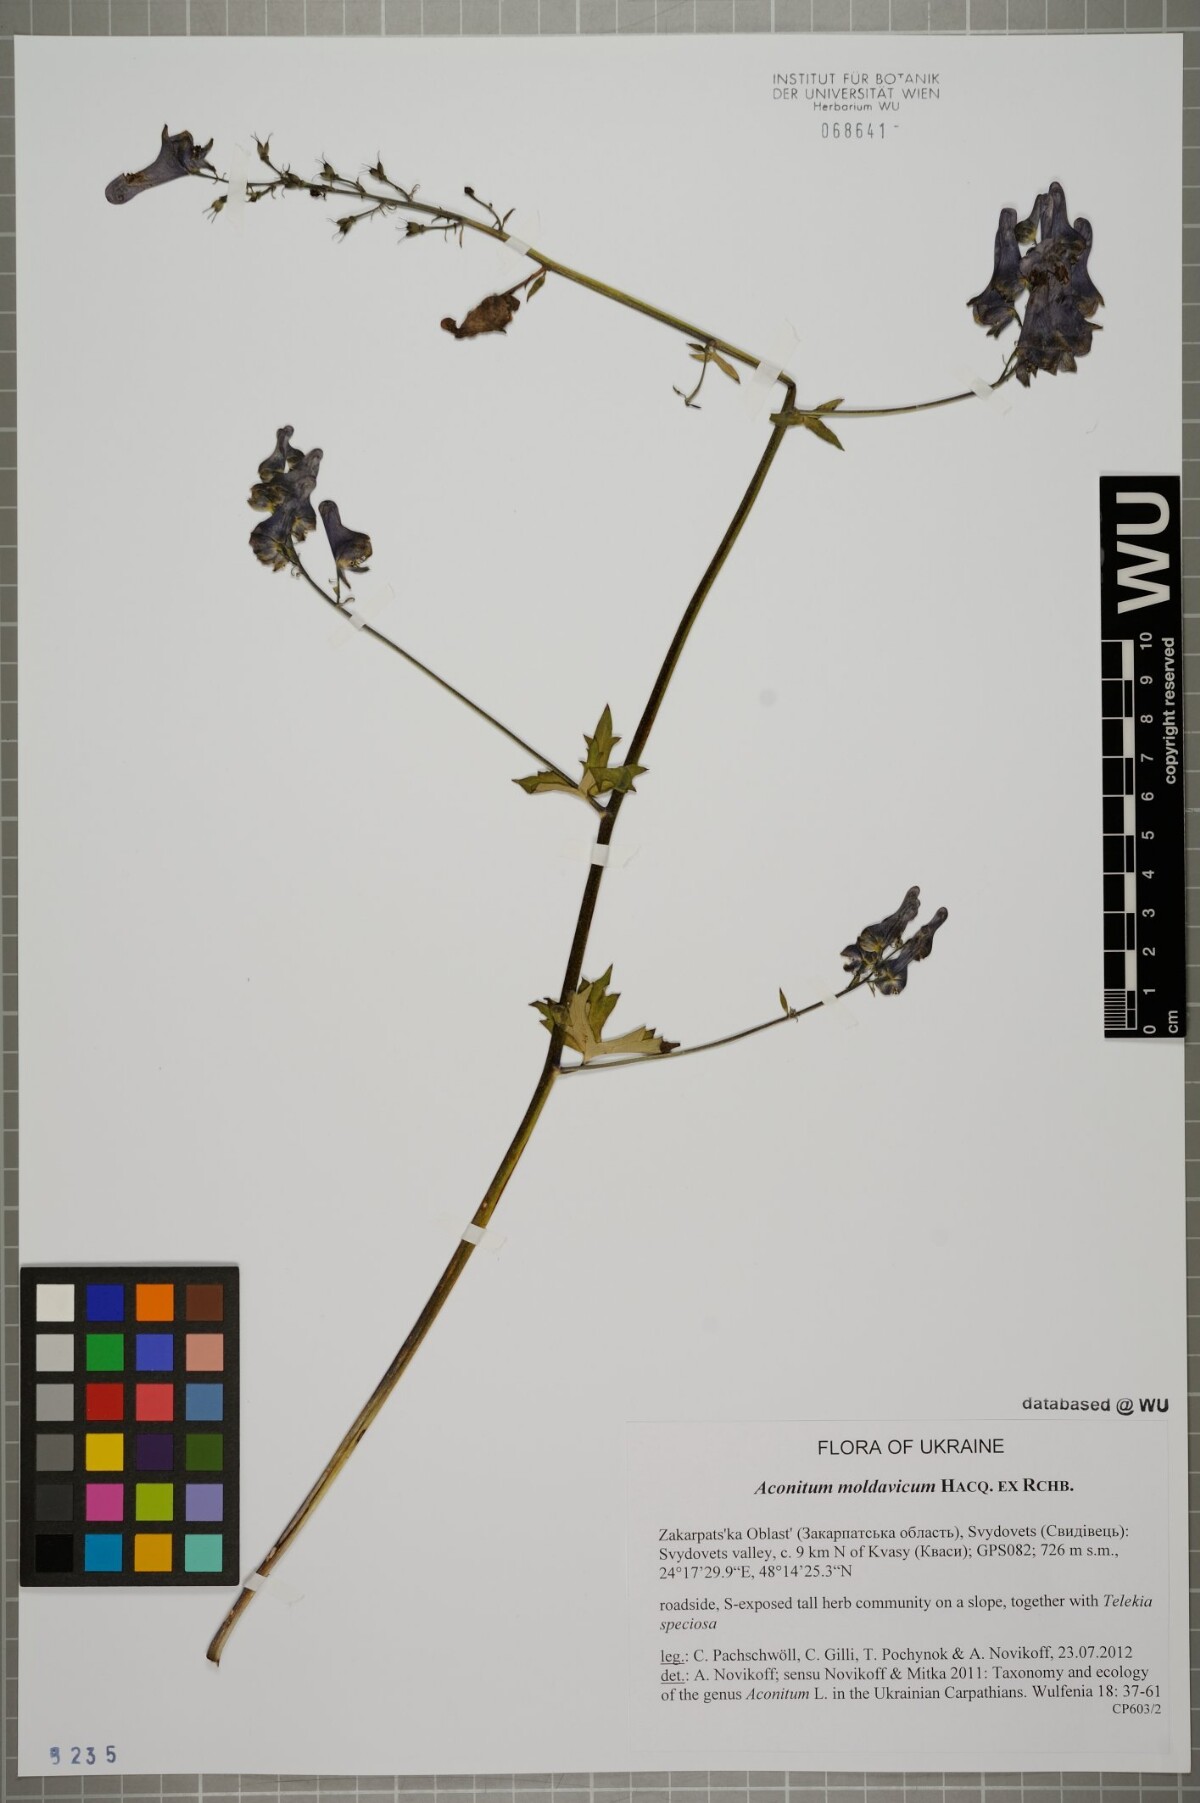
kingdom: Plantae
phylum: Tracheophyta
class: Magnoliopsida
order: Ranunculales
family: Ranunculaceae
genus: Aconitum
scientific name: Aconitum lycoctonum
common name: Wolf's-bane
